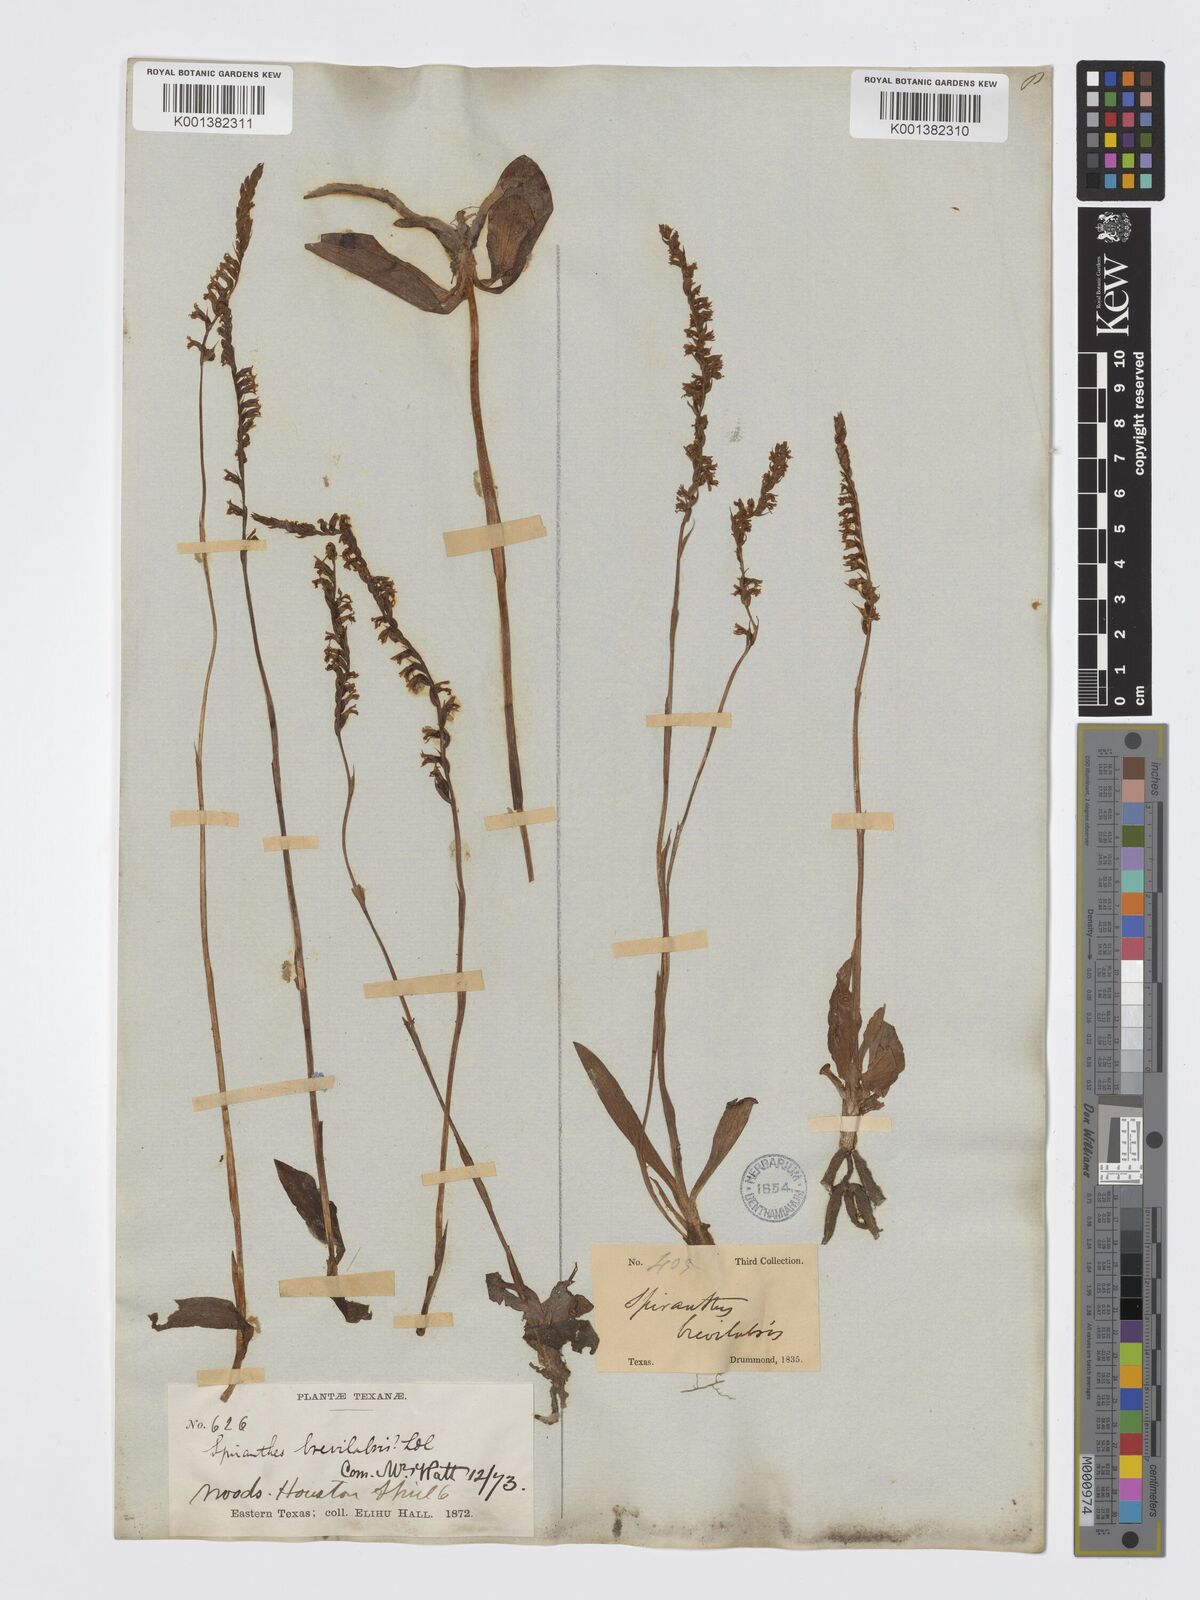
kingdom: Plantae
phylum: Tracheophyta
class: Liliopsida
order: Asparagales
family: Orchidaceae
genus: Spiranthes
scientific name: Spiranthes brevilabris
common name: Texas ladies'-tresses
